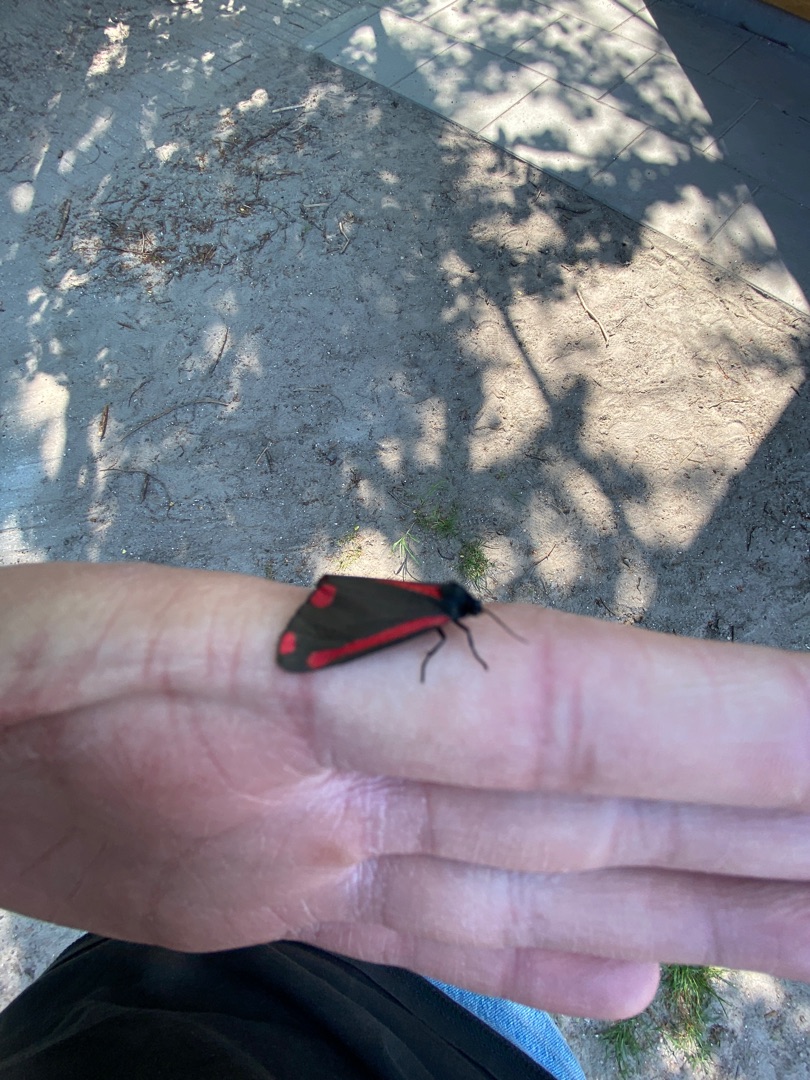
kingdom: Animalia
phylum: Arthropoda
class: Insecta
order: Lepidoptera
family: Erebidae
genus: Tyria
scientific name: Tyria jacobaeae
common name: Blodplet
